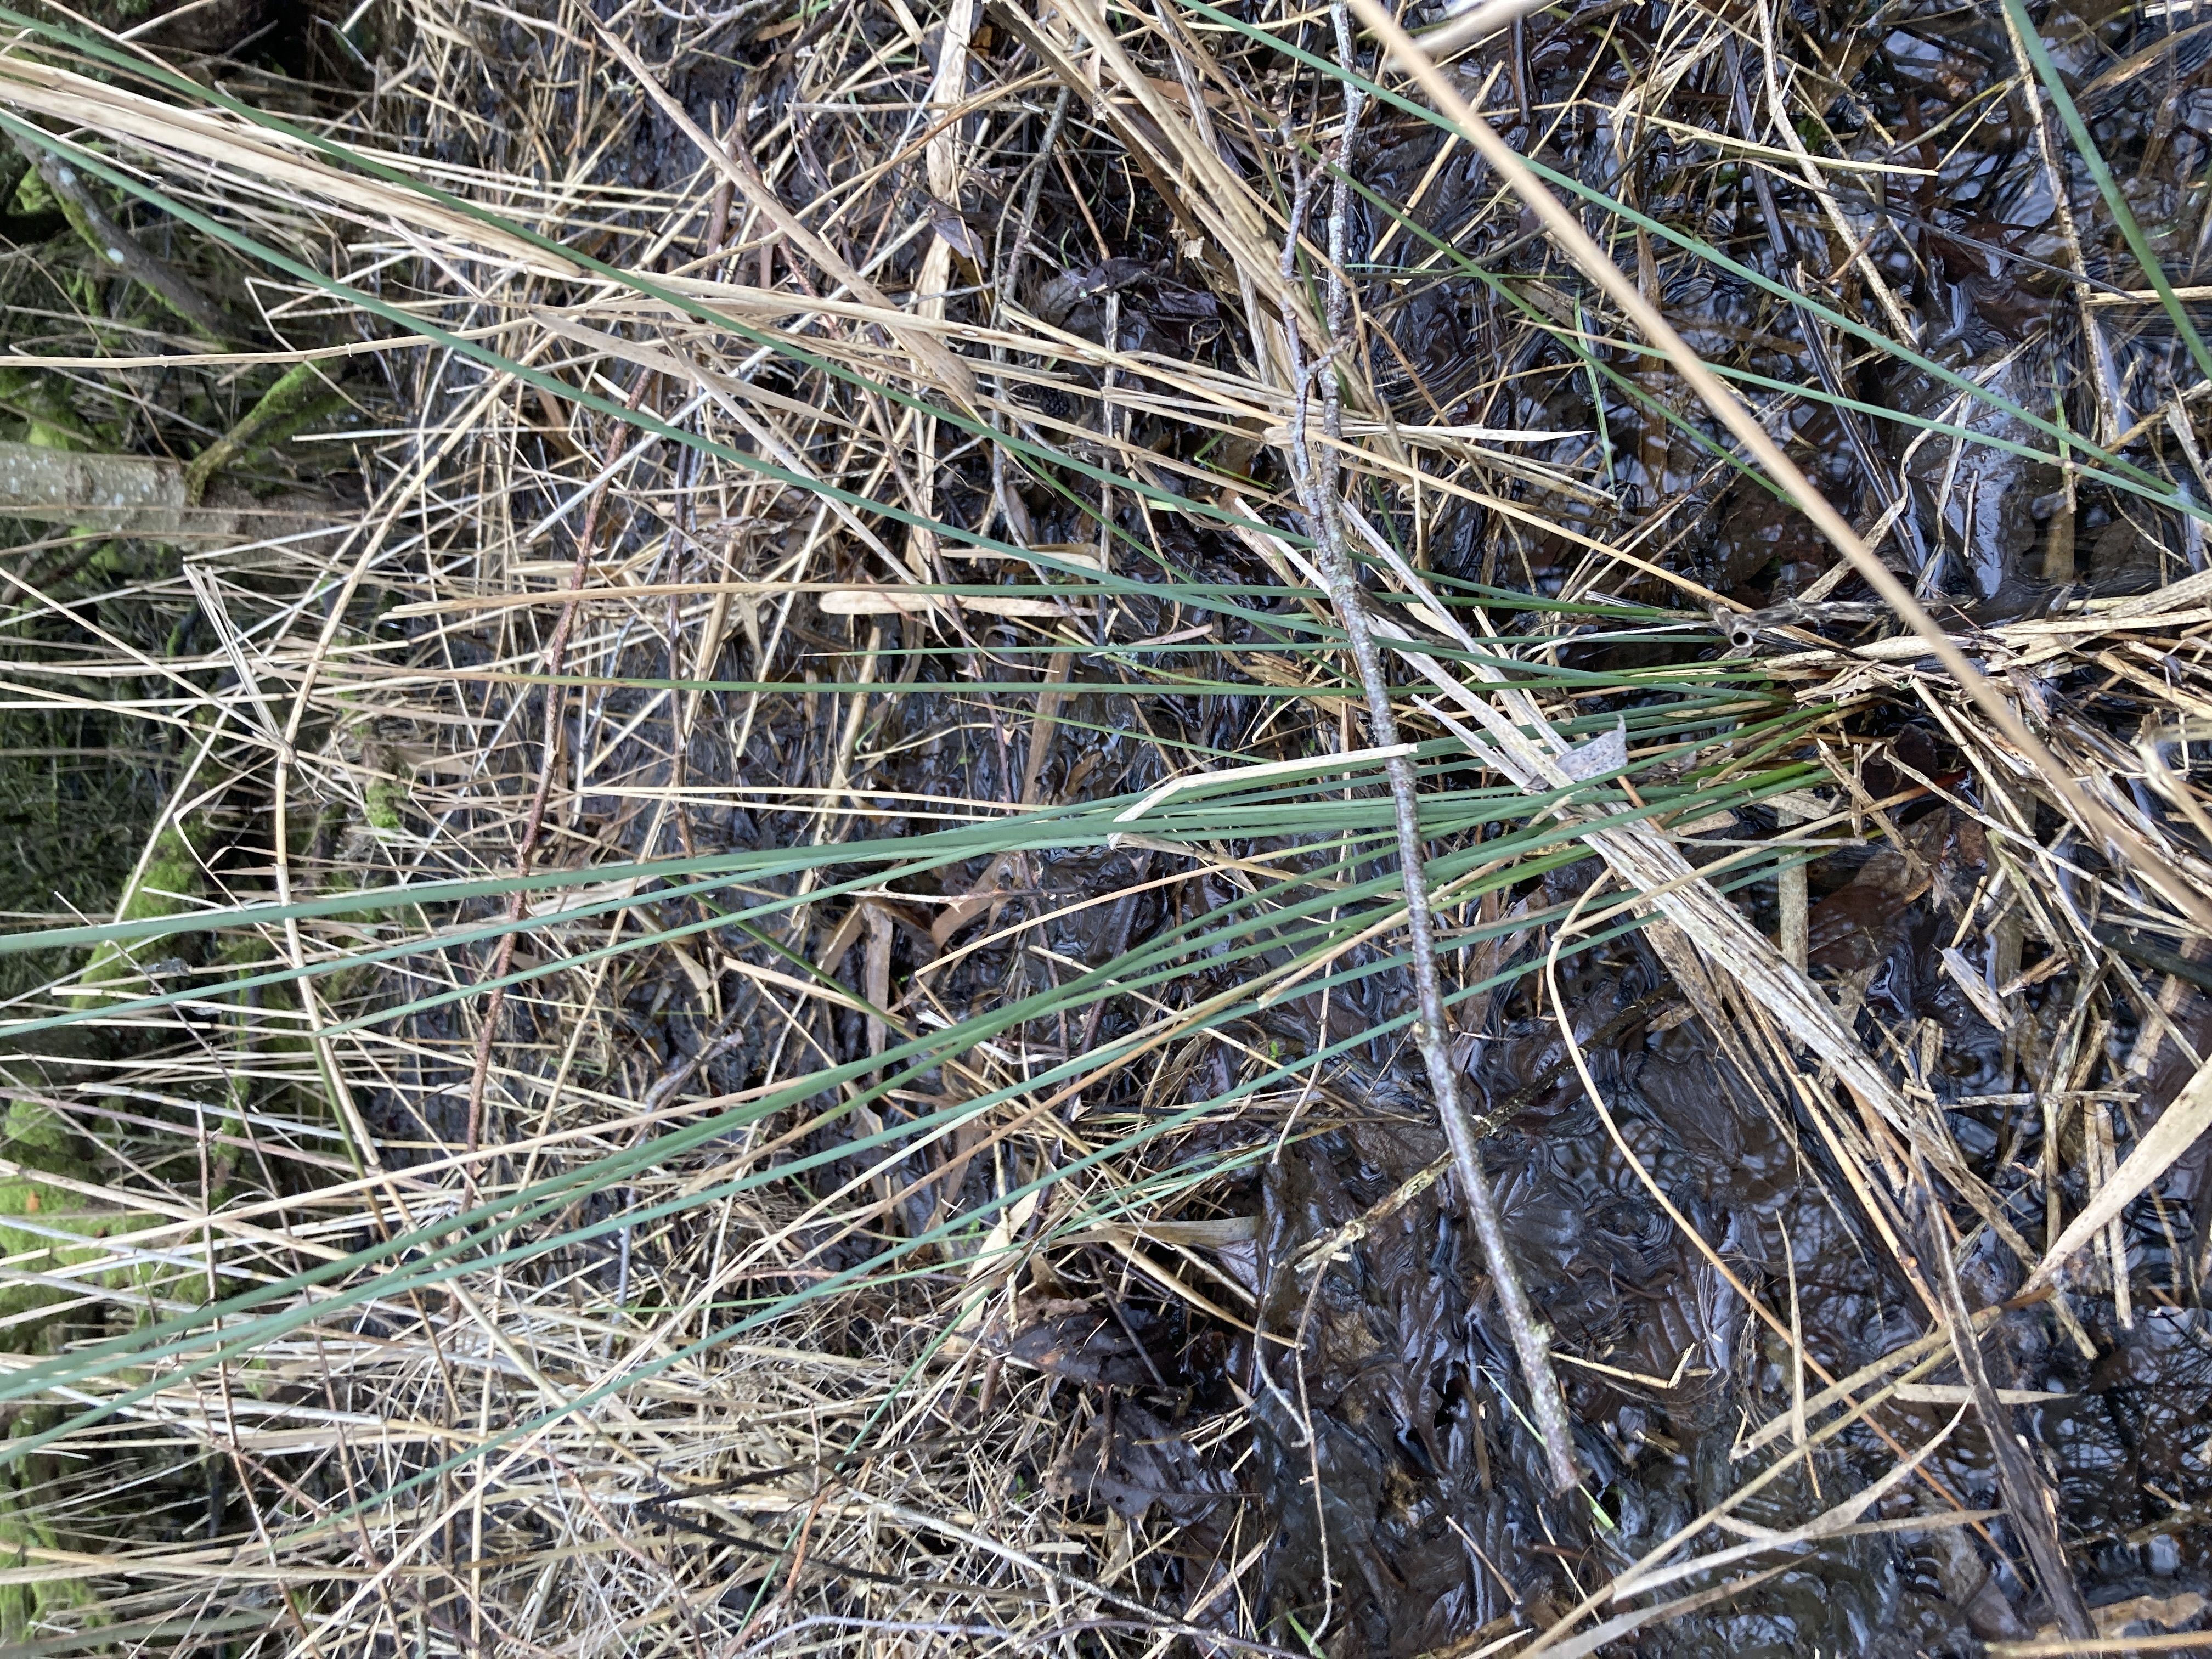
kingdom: Plantae
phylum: Tracheophyta
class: Liliopsida
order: Poales
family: Juncaceae
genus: Juncus
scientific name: Juncus inflexus
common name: Blågrå siv
